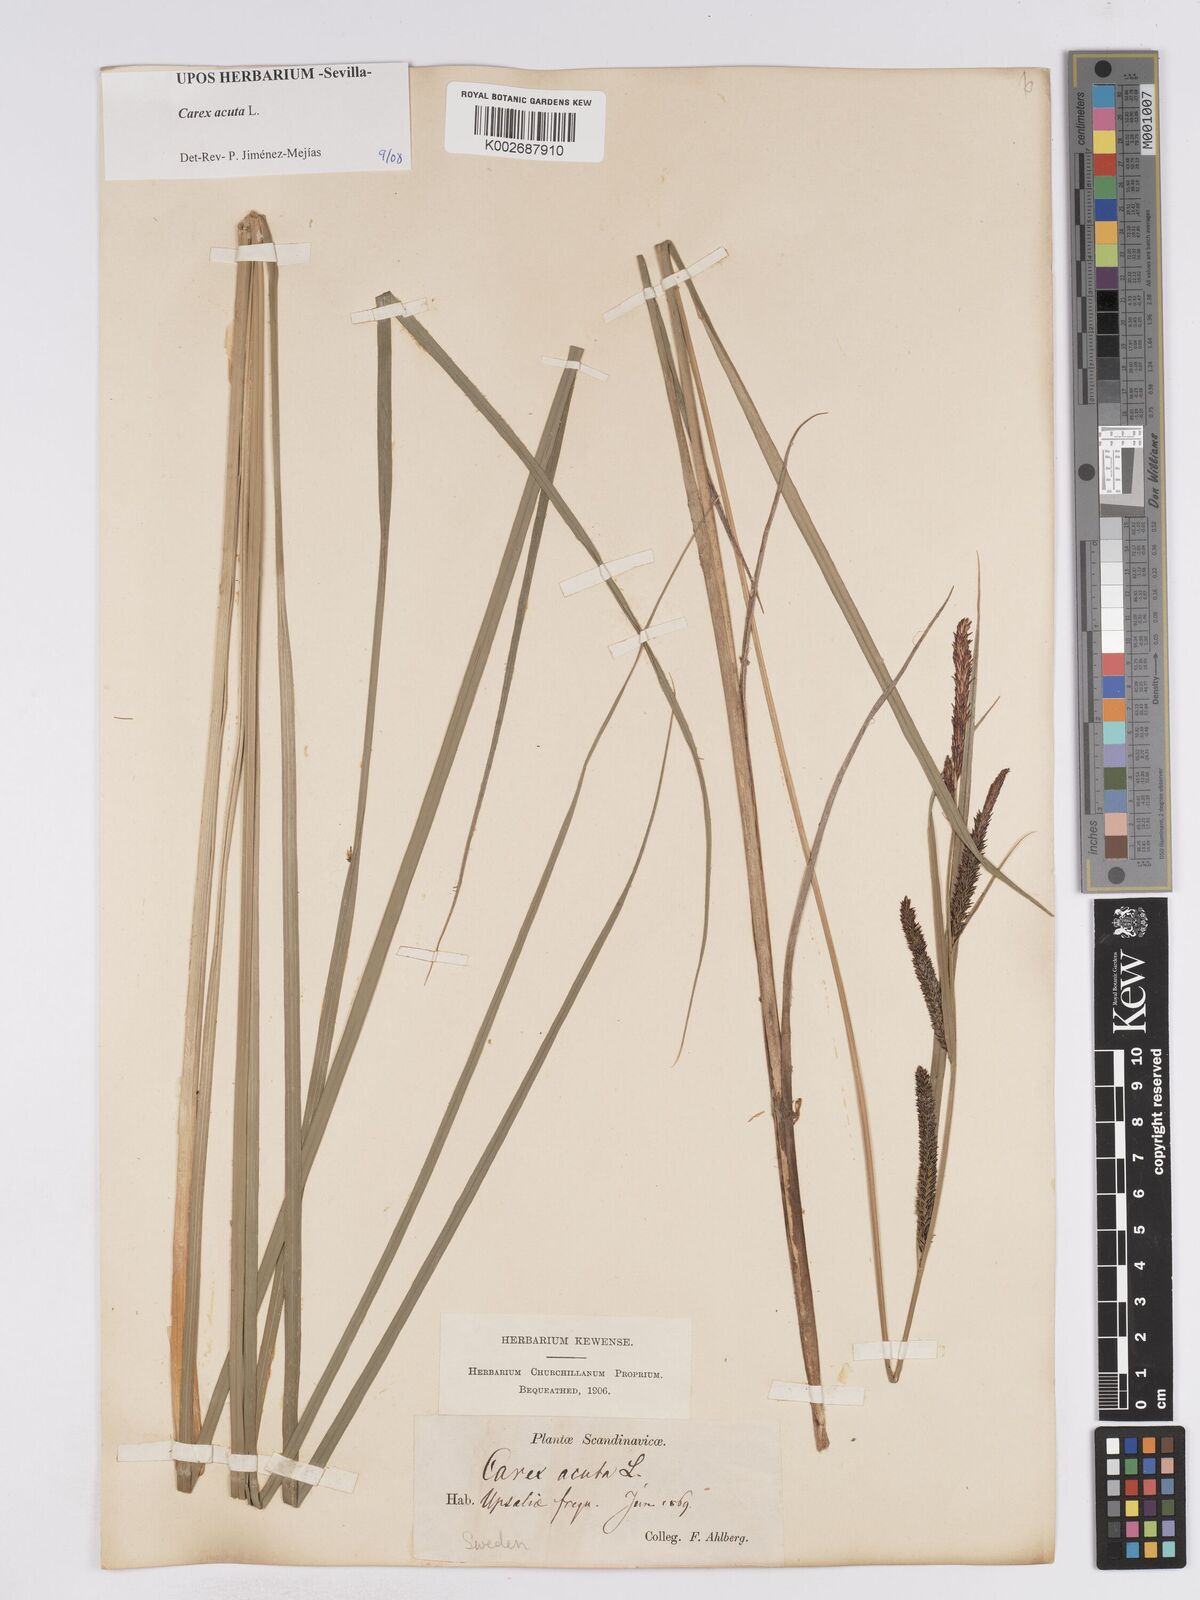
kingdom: Plantae
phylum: Tracheophyta
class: Liliopsida
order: Poales
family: Cyperaceae
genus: Carex
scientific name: Carex acuta
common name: Slender tufted-sedge
